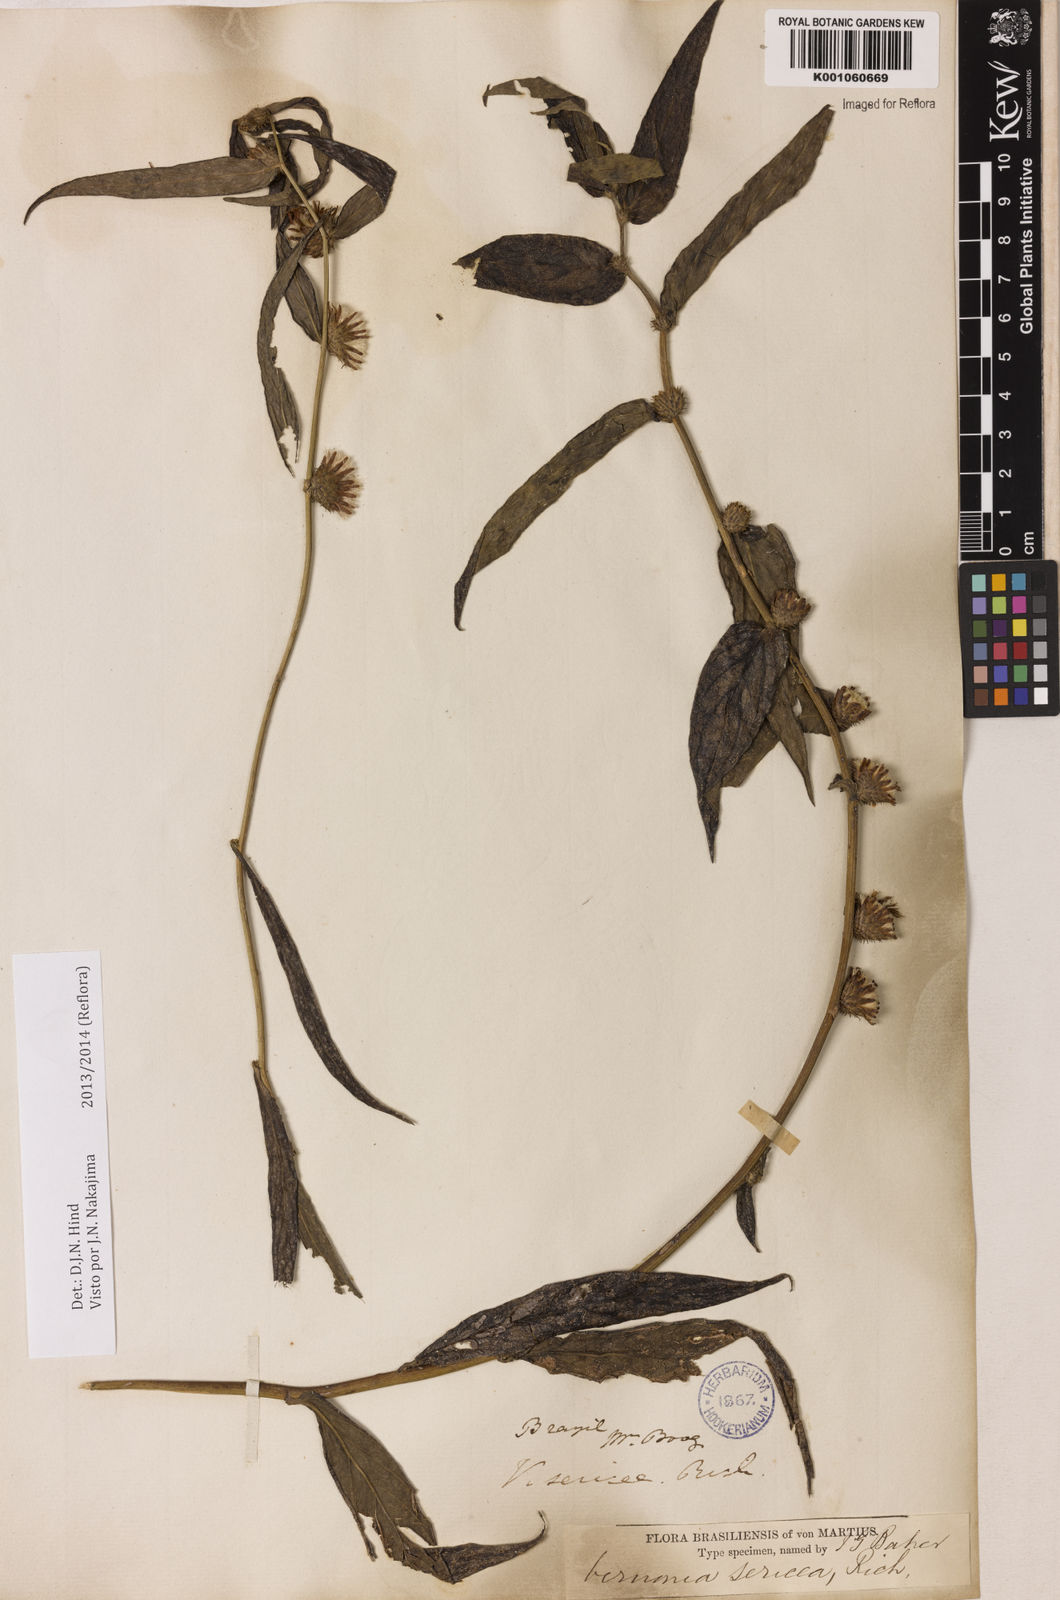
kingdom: Plantae
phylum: Tracheophyta
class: Magnoliopsida
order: Asterales
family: Asteraceae
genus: Lepidaploa
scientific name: Lepidaploa sericea
